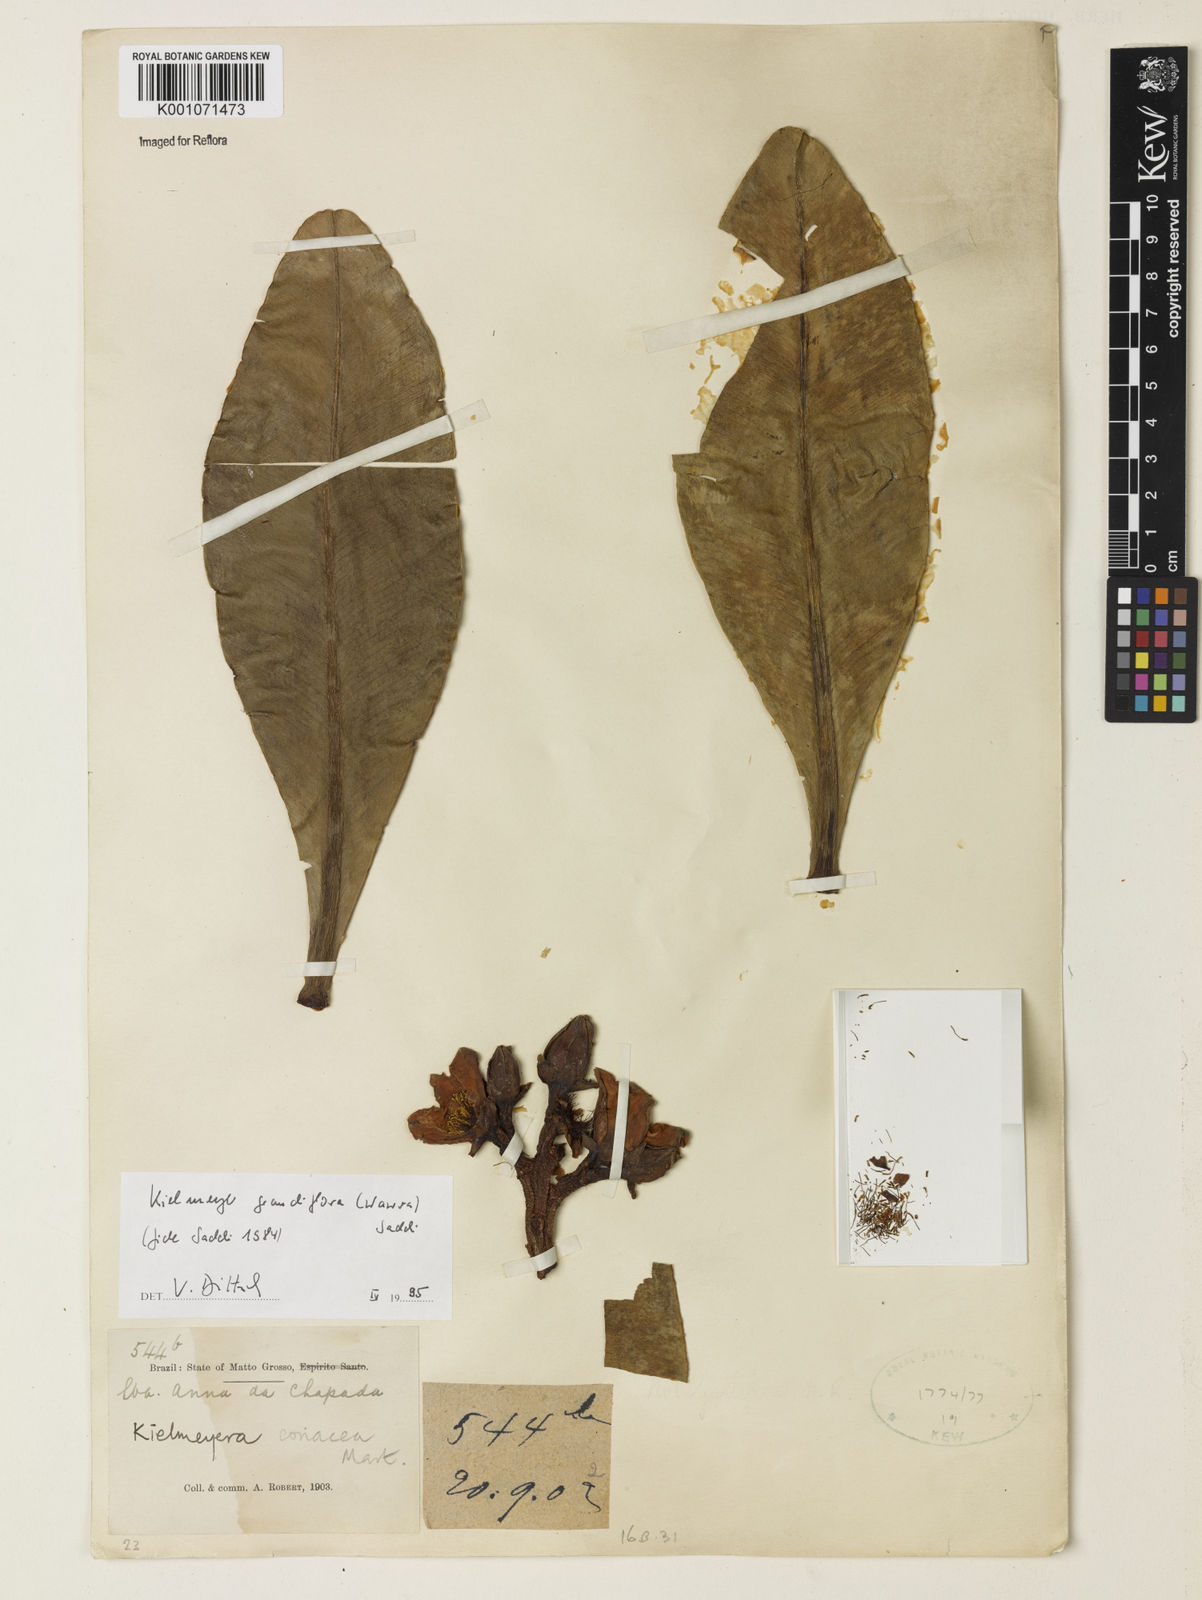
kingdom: Plantae
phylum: Tracheophyta
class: Magnoliopsida
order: Malpighiales
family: Calophyllaceae
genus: Kielmeyera
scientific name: Kielmeyera grandiflora
